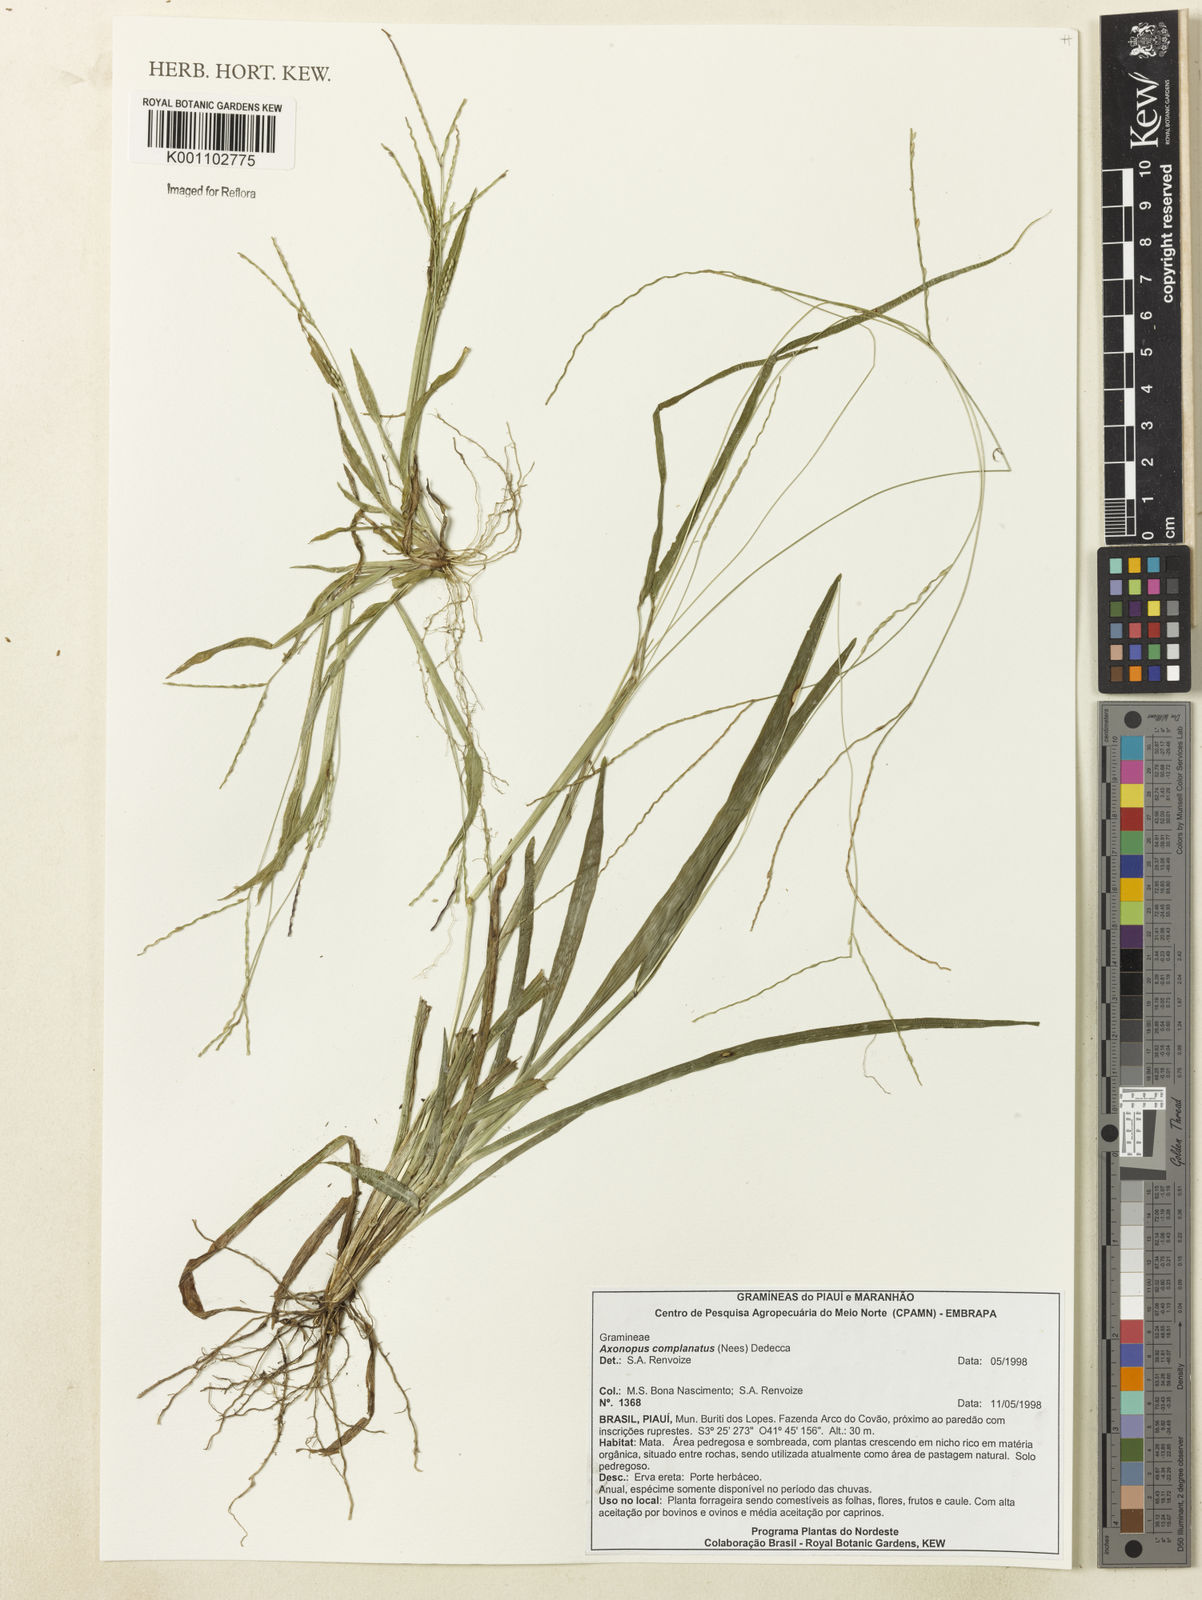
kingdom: Plantae
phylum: Tracheophyta
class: Liliopsida
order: Poales
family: Poaceae
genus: Axonopus
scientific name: Axonopus complanatus
